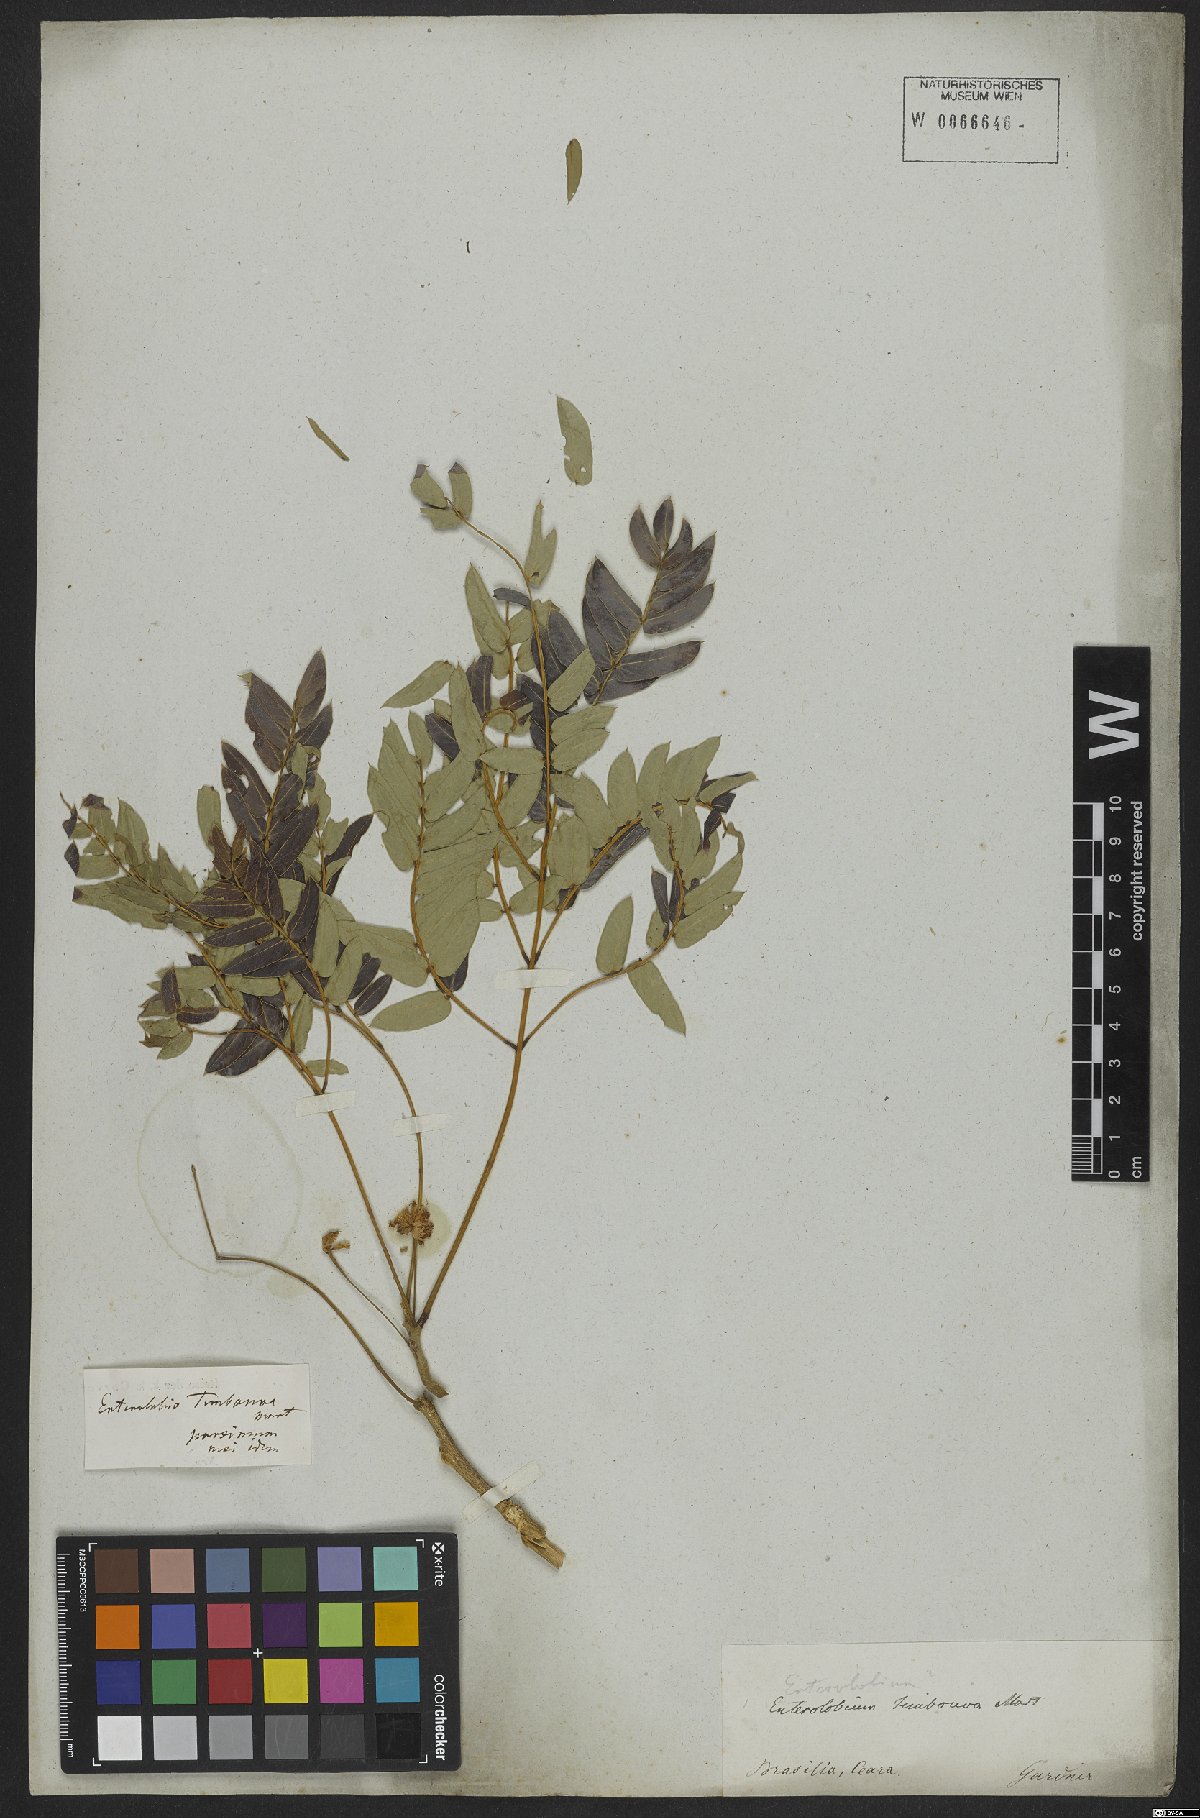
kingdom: Plantae
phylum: Tracheophyta
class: Magnoliopsida
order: Fabales
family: Fabaceae
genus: Enterolobium
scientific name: Enterolobium timbouva
